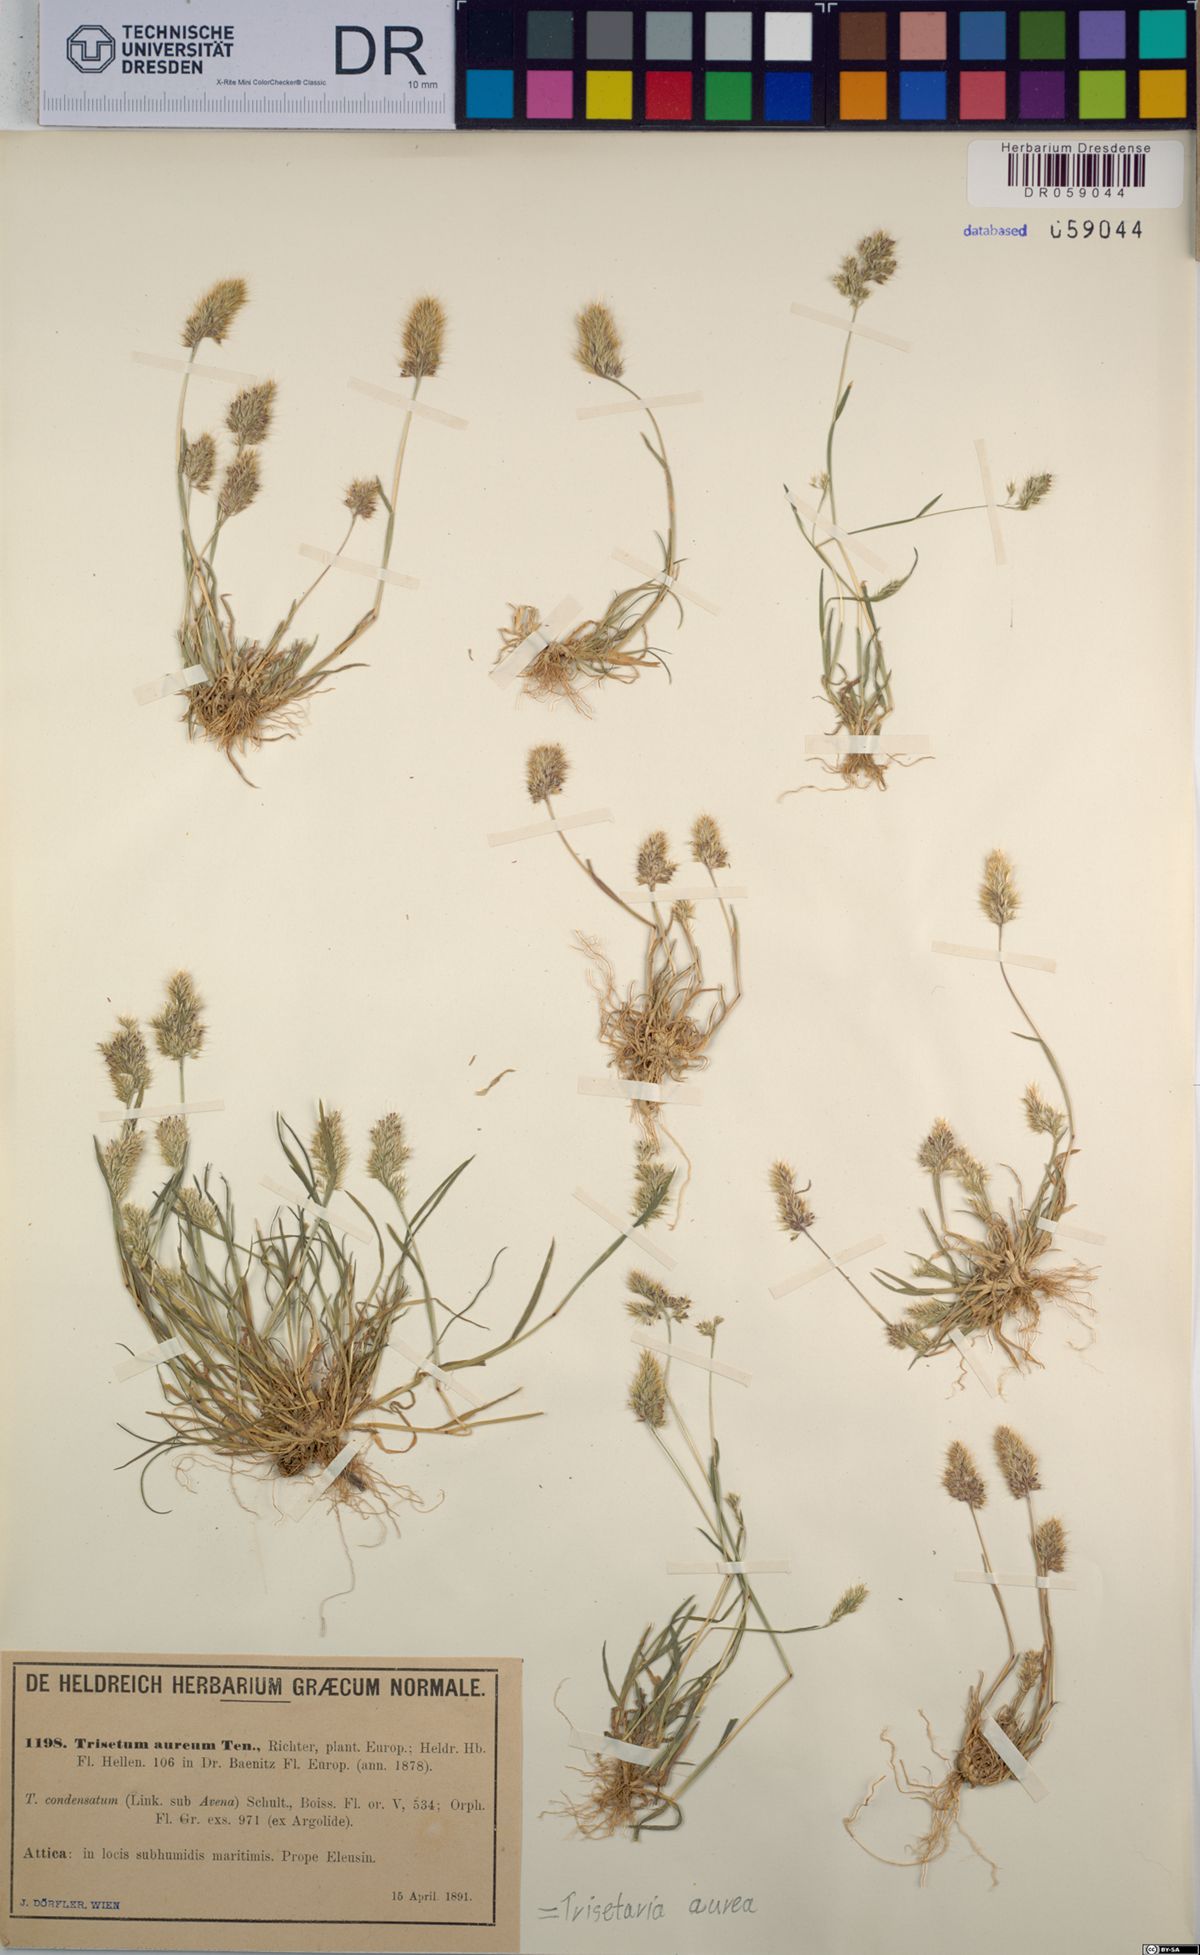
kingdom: Plantae
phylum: Tracheophyta
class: Liliopsida
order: Poales
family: Poaceae
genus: Trisetaria
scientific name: Trisetaria aurea
